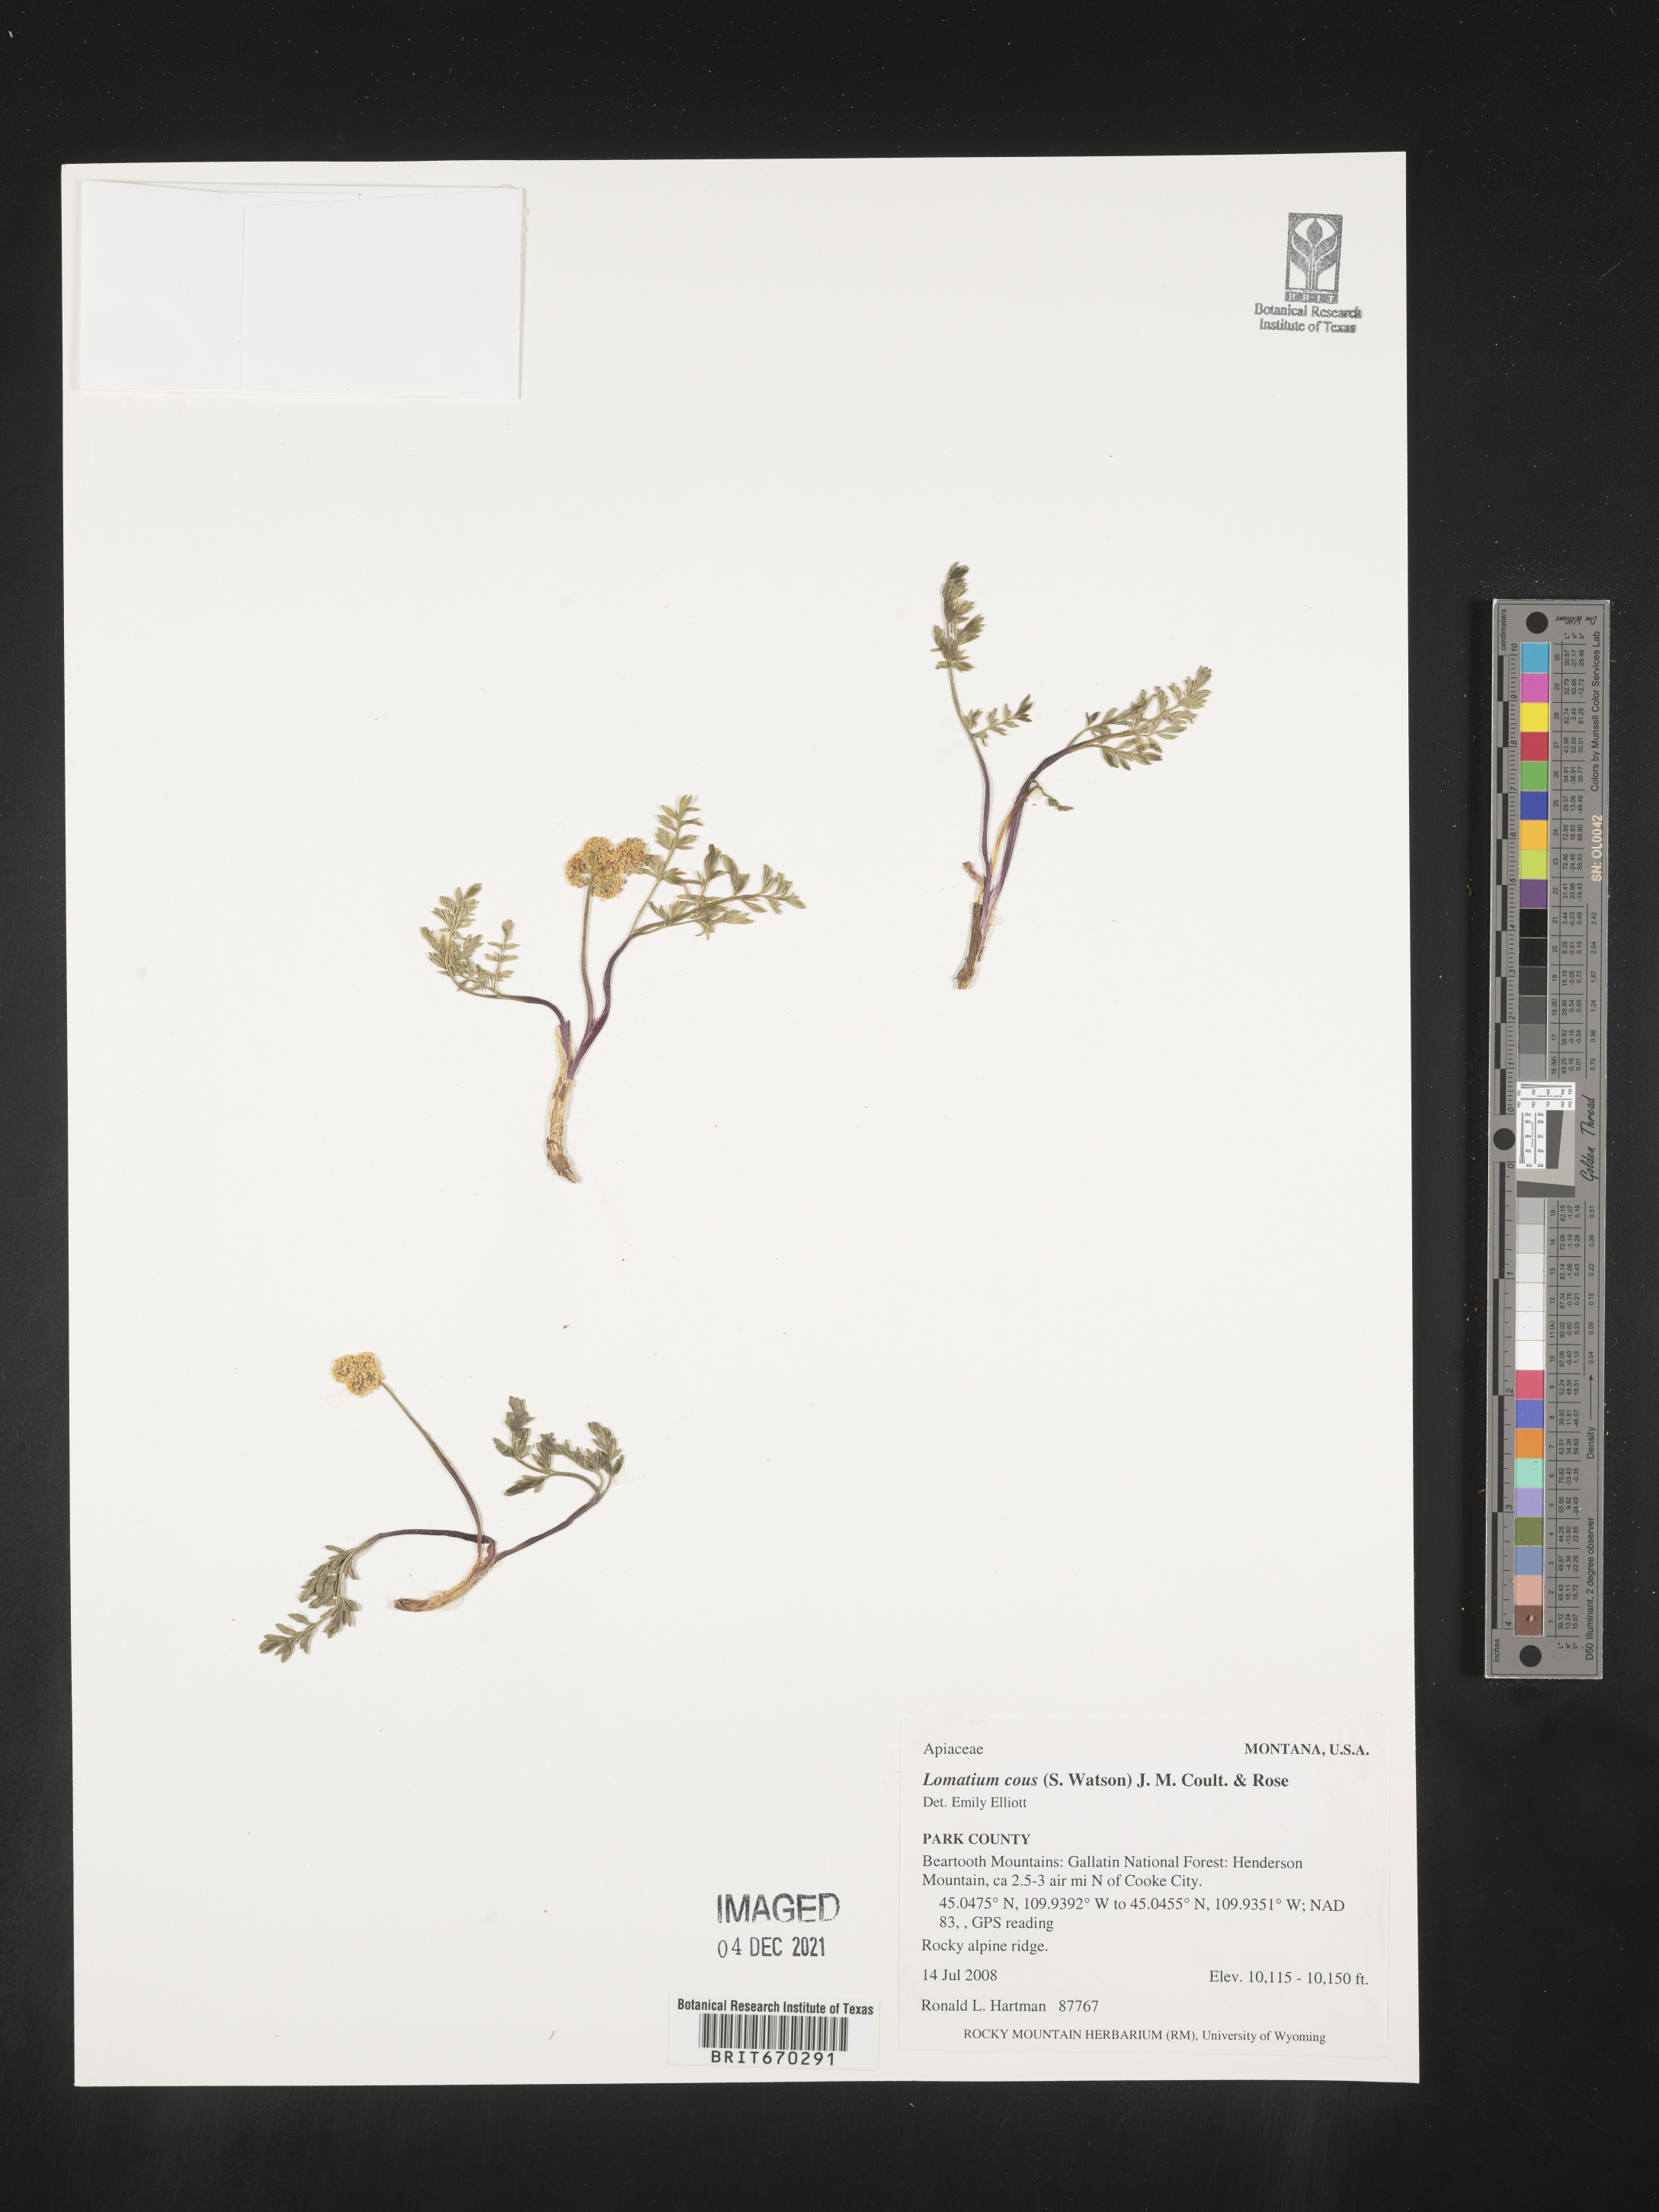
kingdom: Plantae
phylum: Tracheophyta
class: Magnoliopsida
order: Apiales
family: Apiaceae
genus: Lomatium
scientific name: Lomatium cous
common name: Biscuit-root
